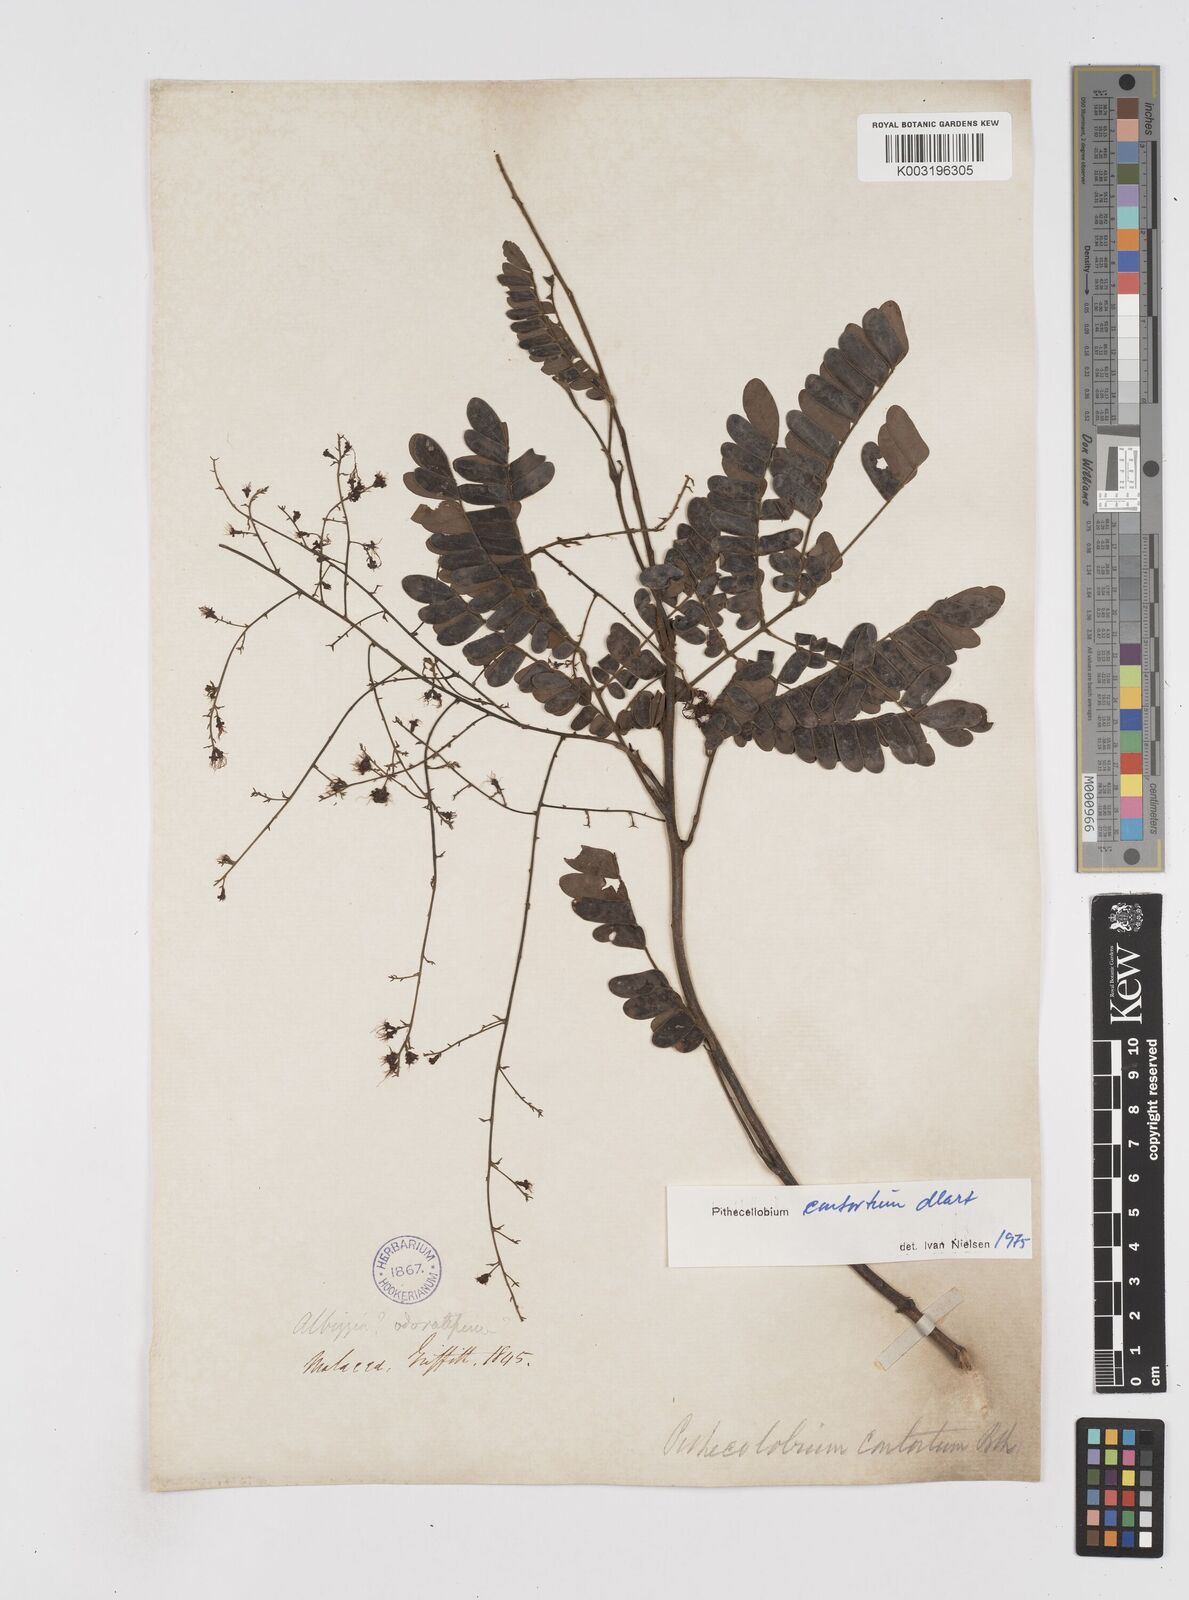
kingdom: Plantae
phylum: Tracheophyta
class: Magnoliopsida
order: Fabales
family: Fabaceae
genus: Archidendron
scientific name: Archidendron contortum
